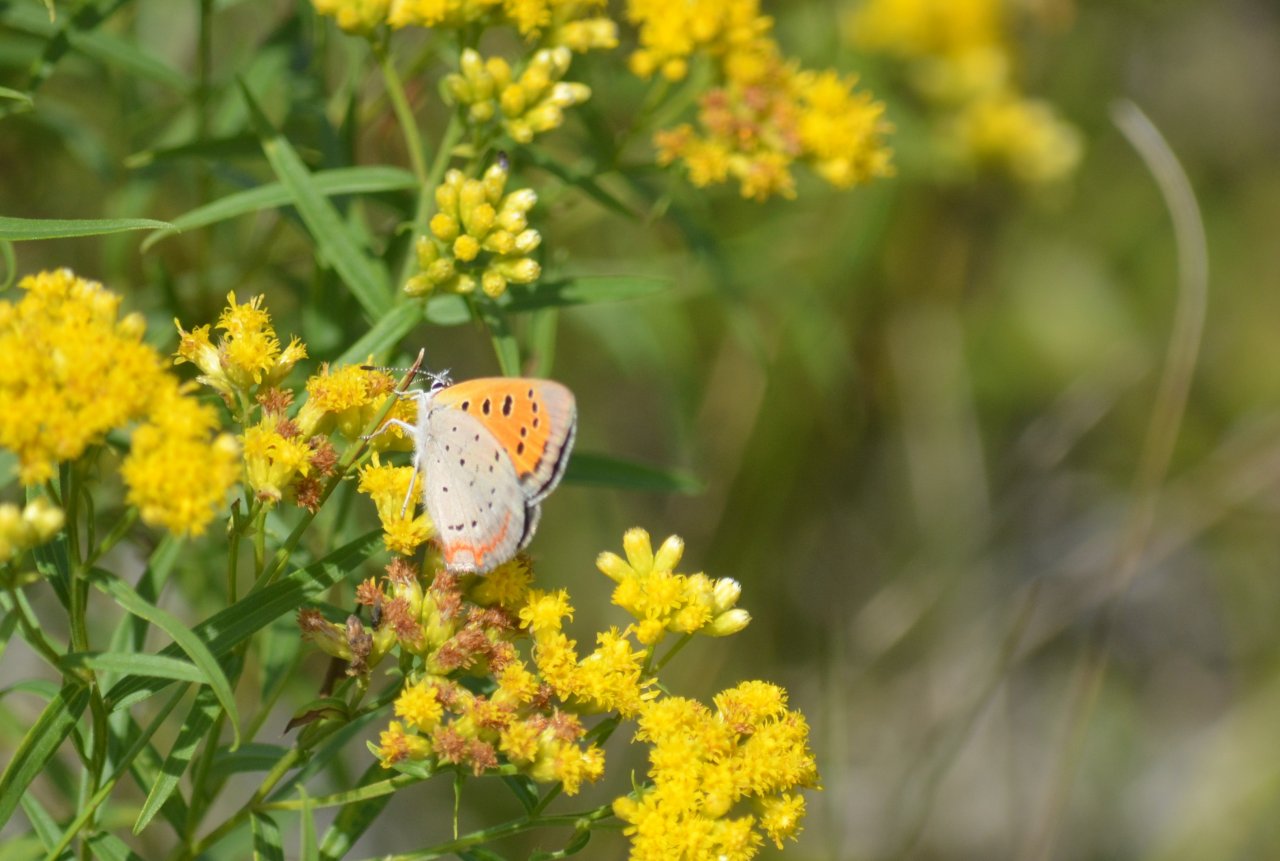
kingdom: Animalia
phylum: Arthropoda
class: Insecta
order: Lepidoptera
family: Lycaenidae
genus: Lycaena
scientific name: Lycaena phlaeas
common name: American Copper
